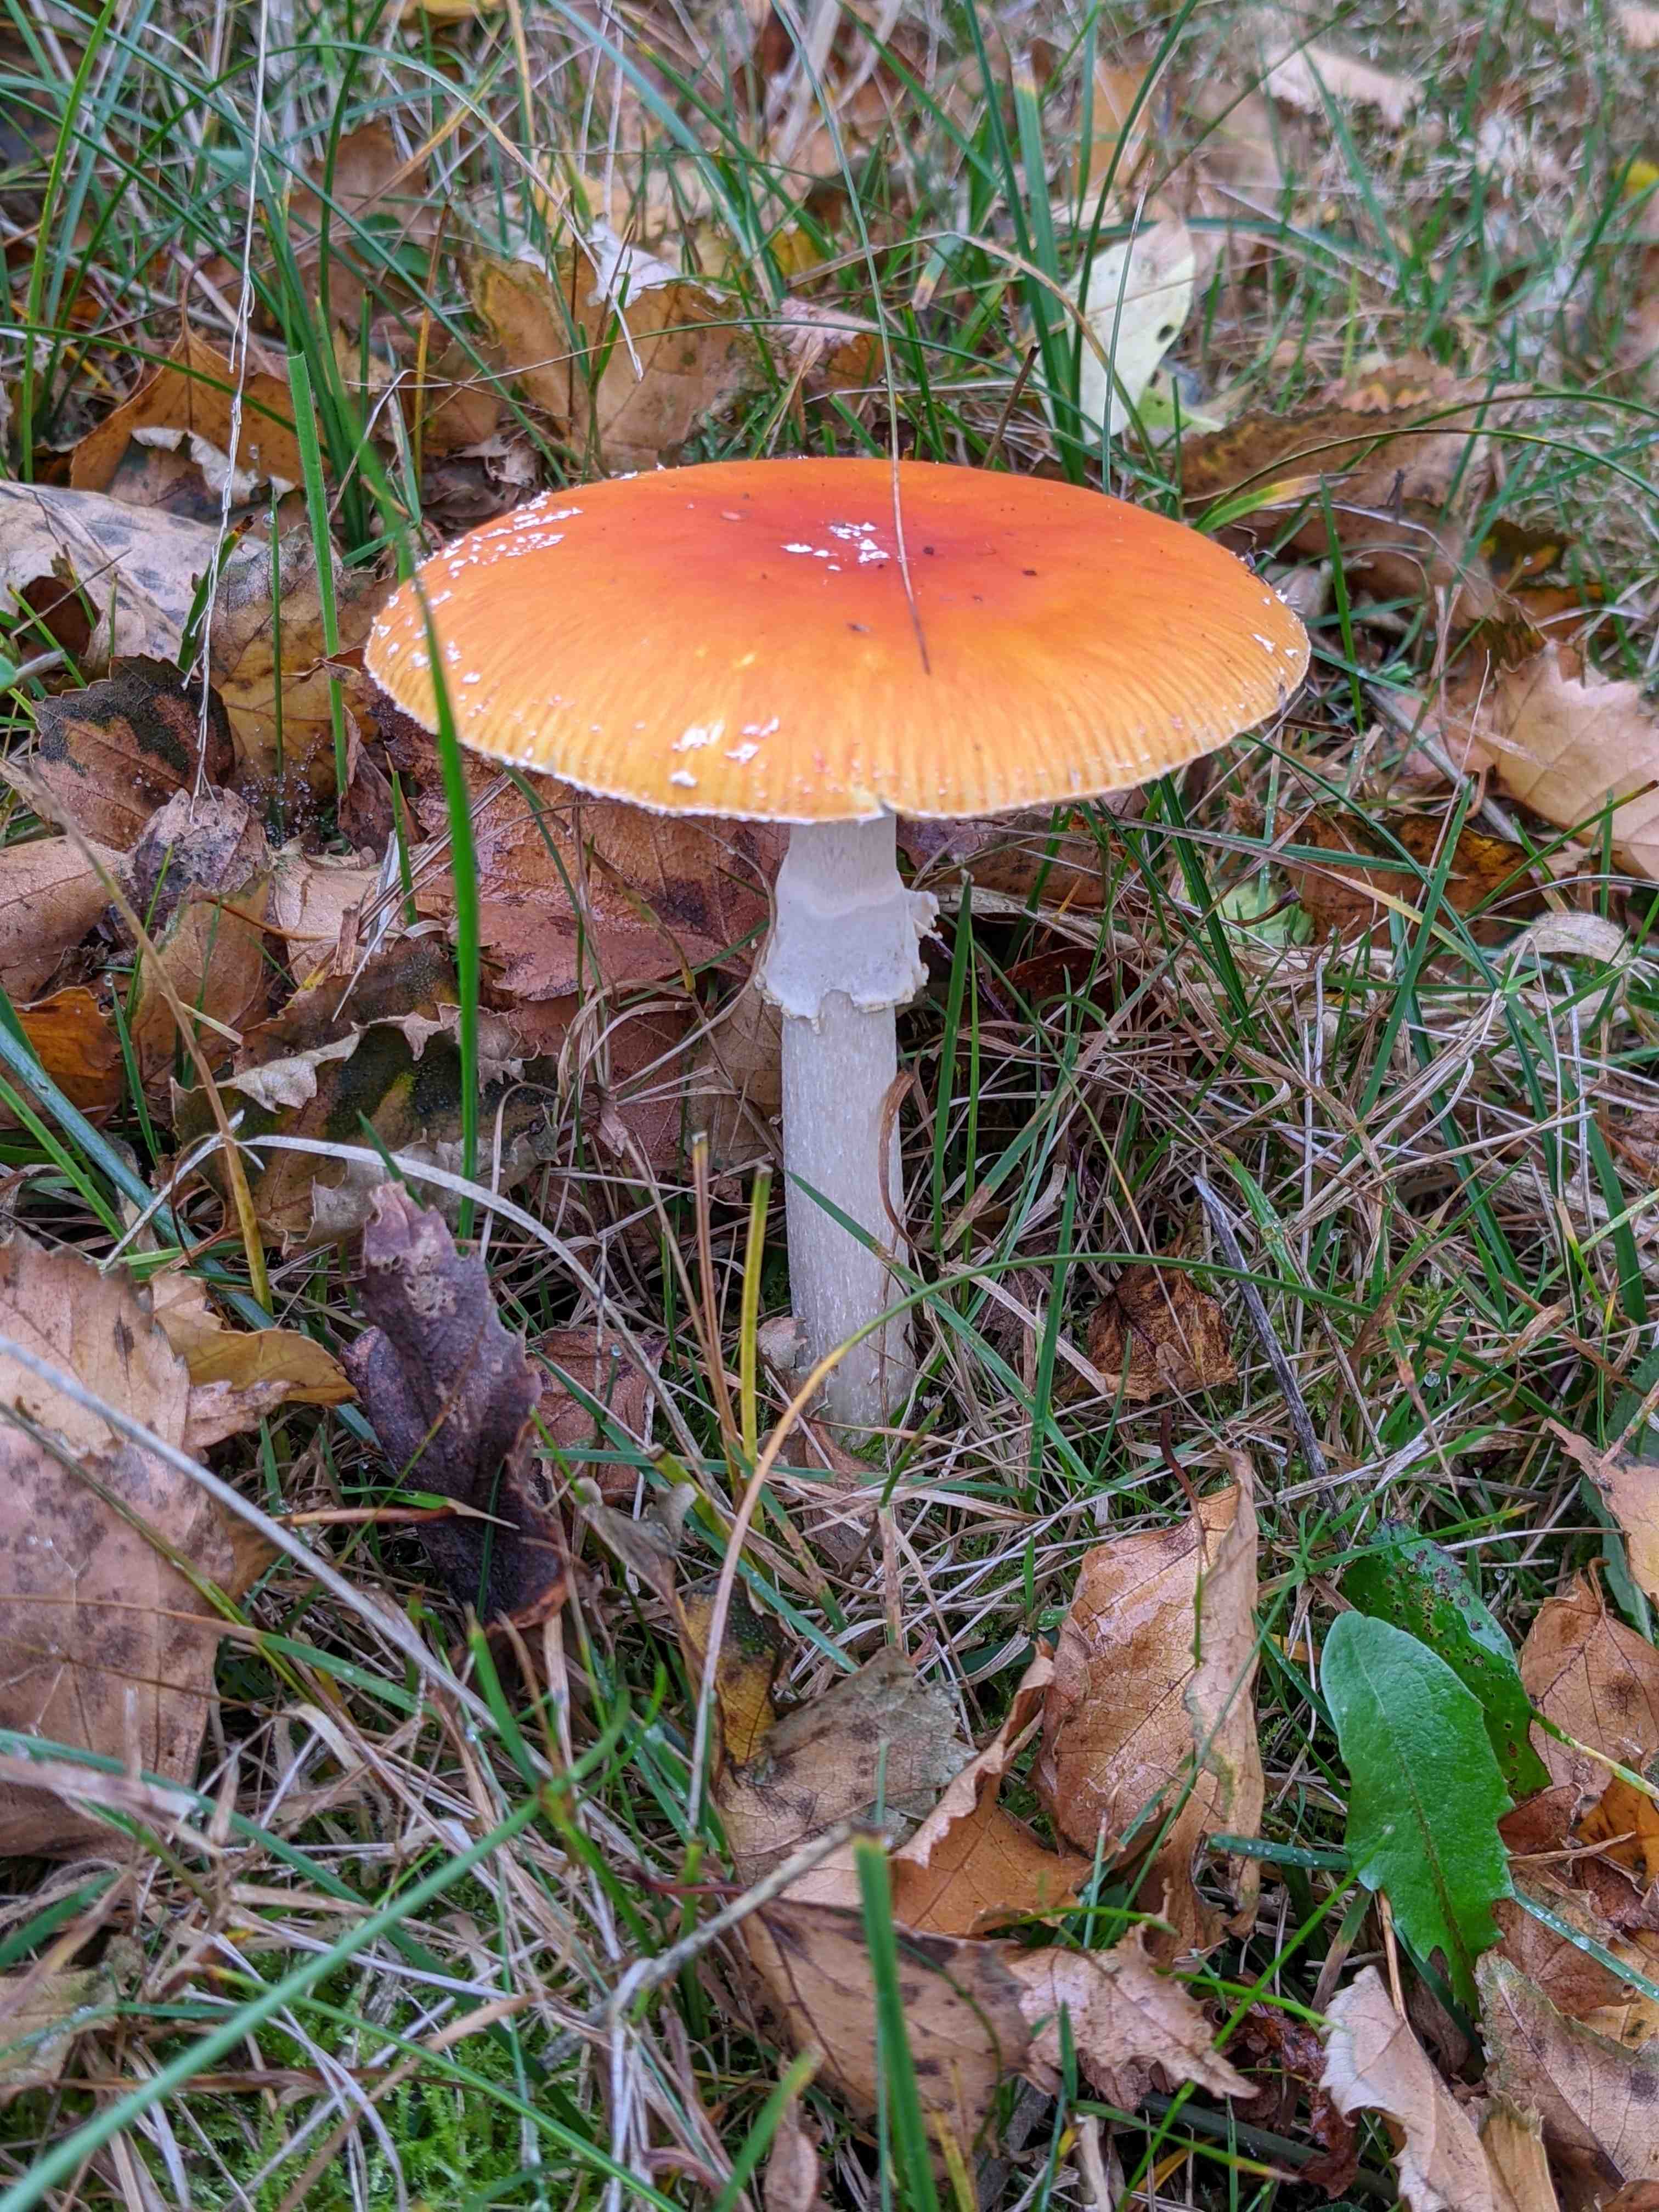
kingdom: Fungi
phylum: Basidiomycota
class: Agaricomycetes
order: Agaricales
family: Amanitaceae
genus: Amanita
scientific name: Amanita muscaria
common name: rød fluesvamp
